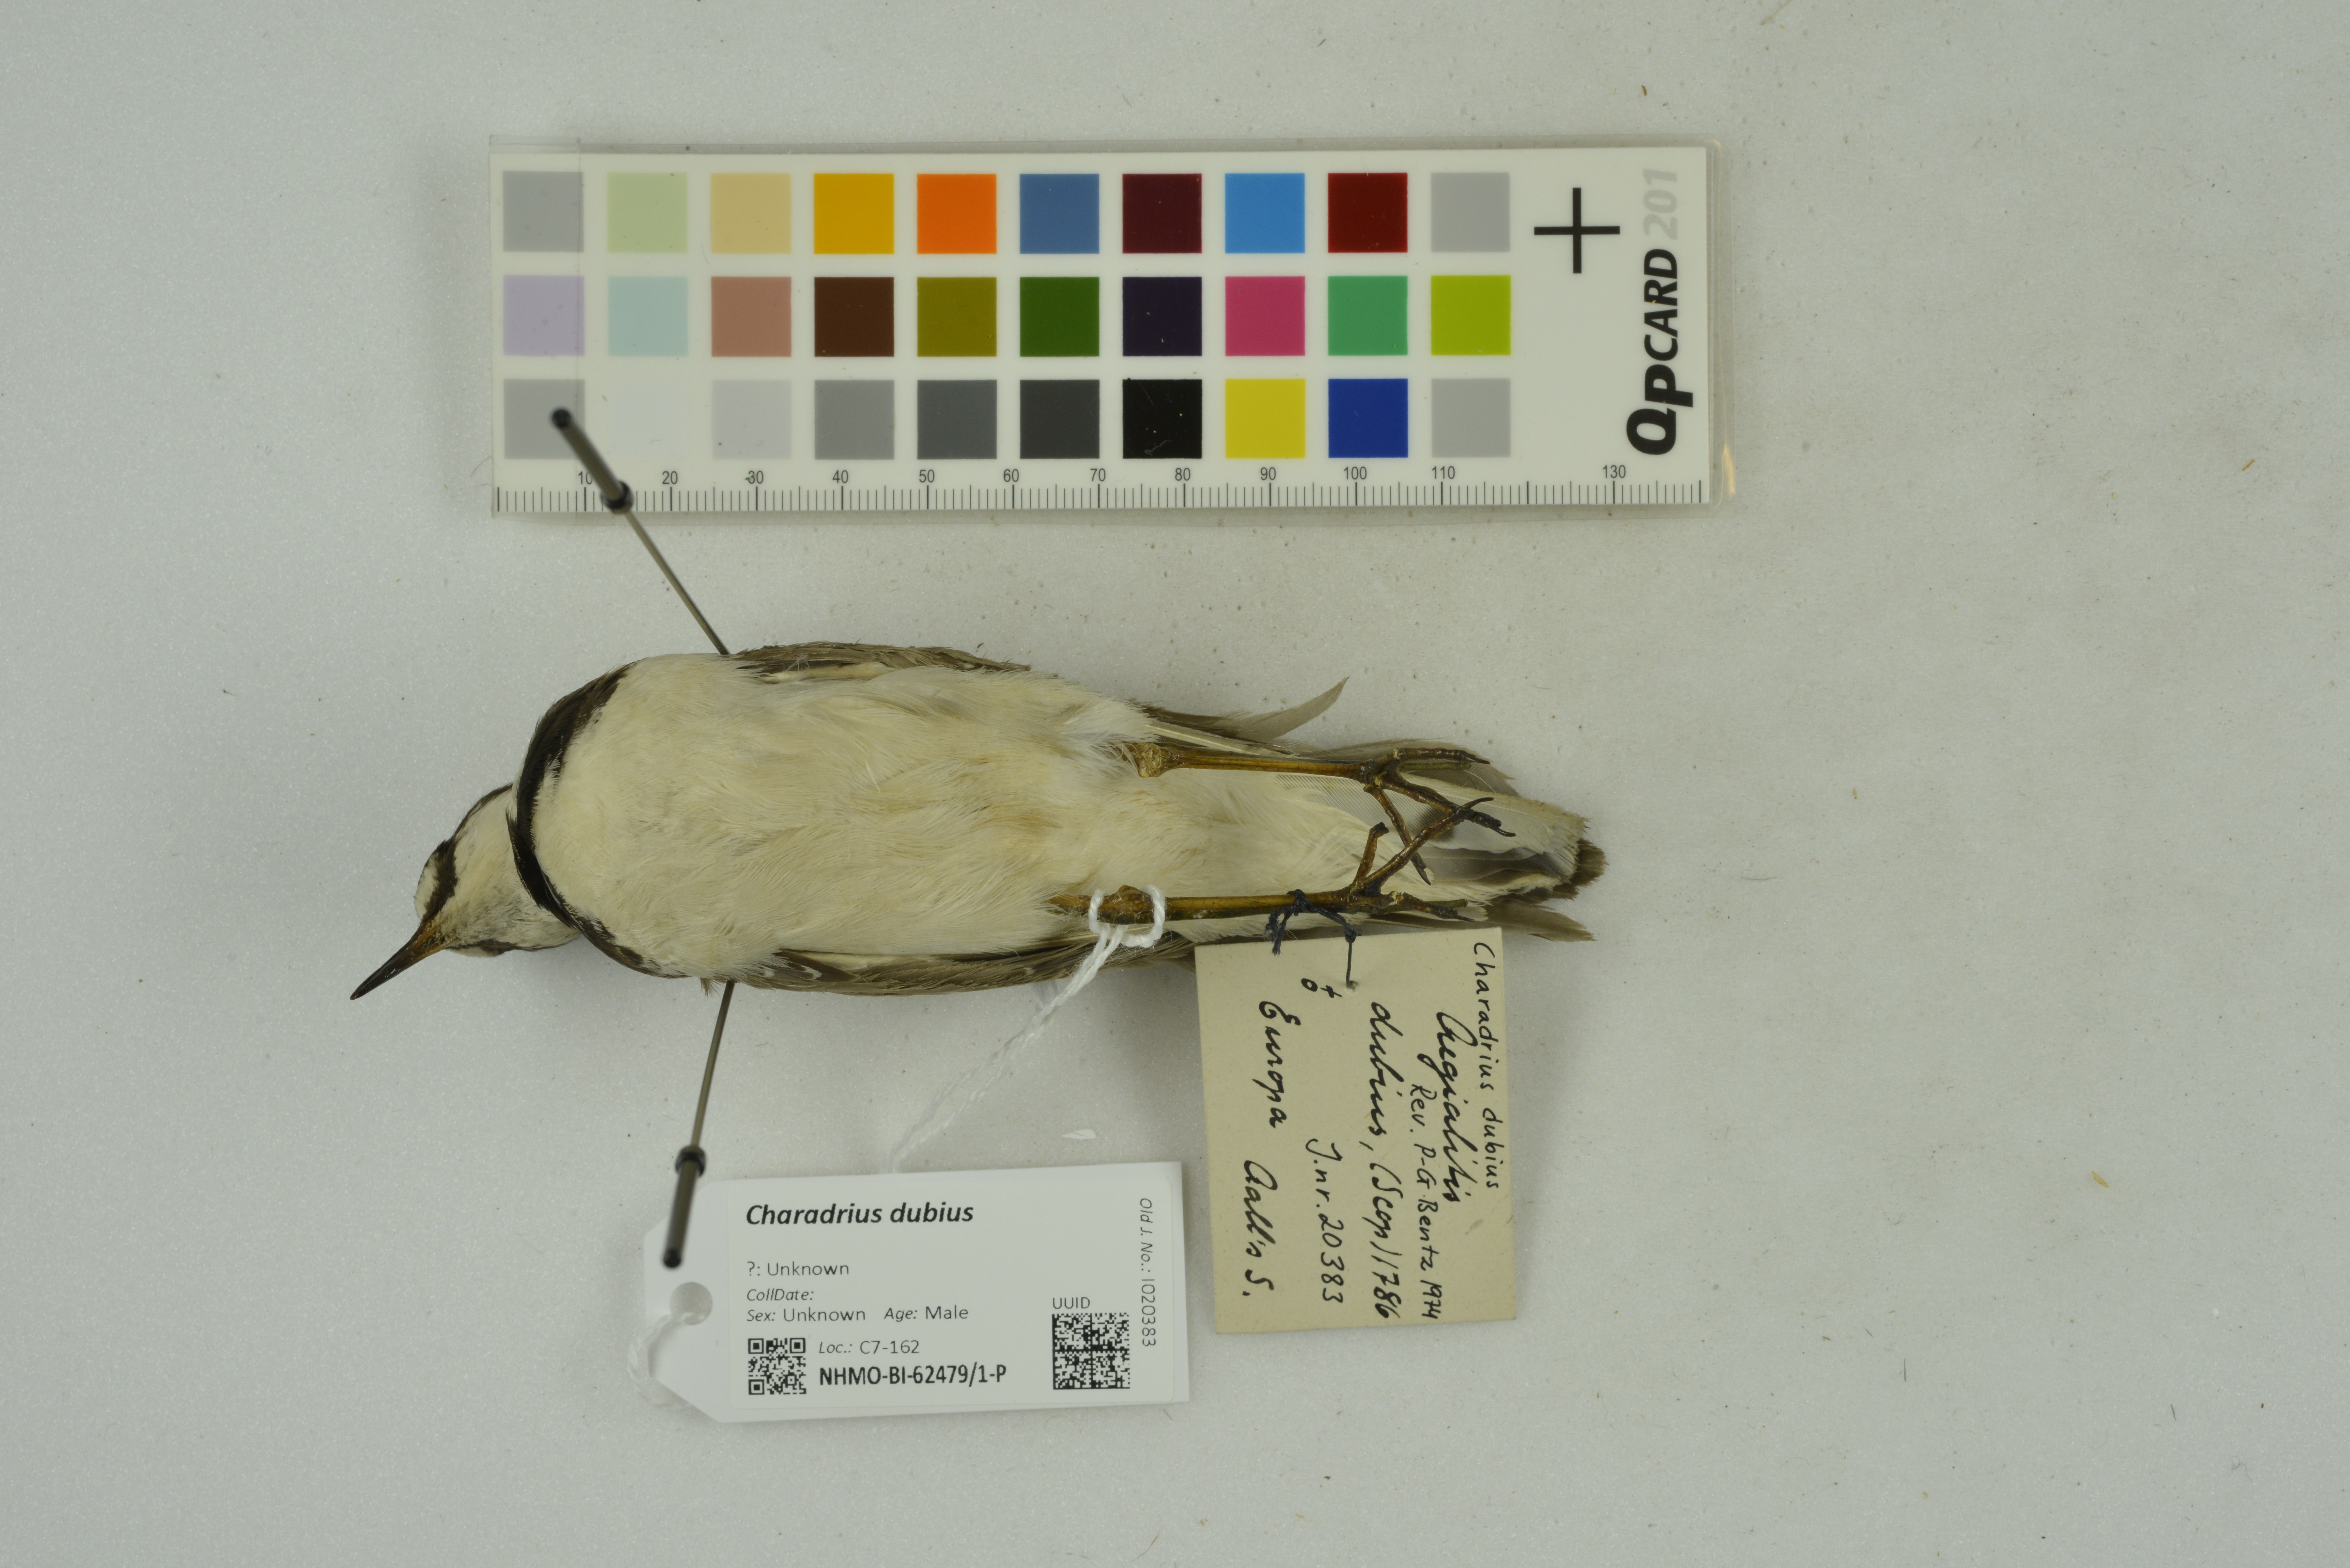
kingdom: Animalia
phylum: Chordata
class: Aves
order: Charadriiformes
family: Charadriidae
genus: Charadrius
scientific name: Charadrius dubius
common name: Little ringed plover
